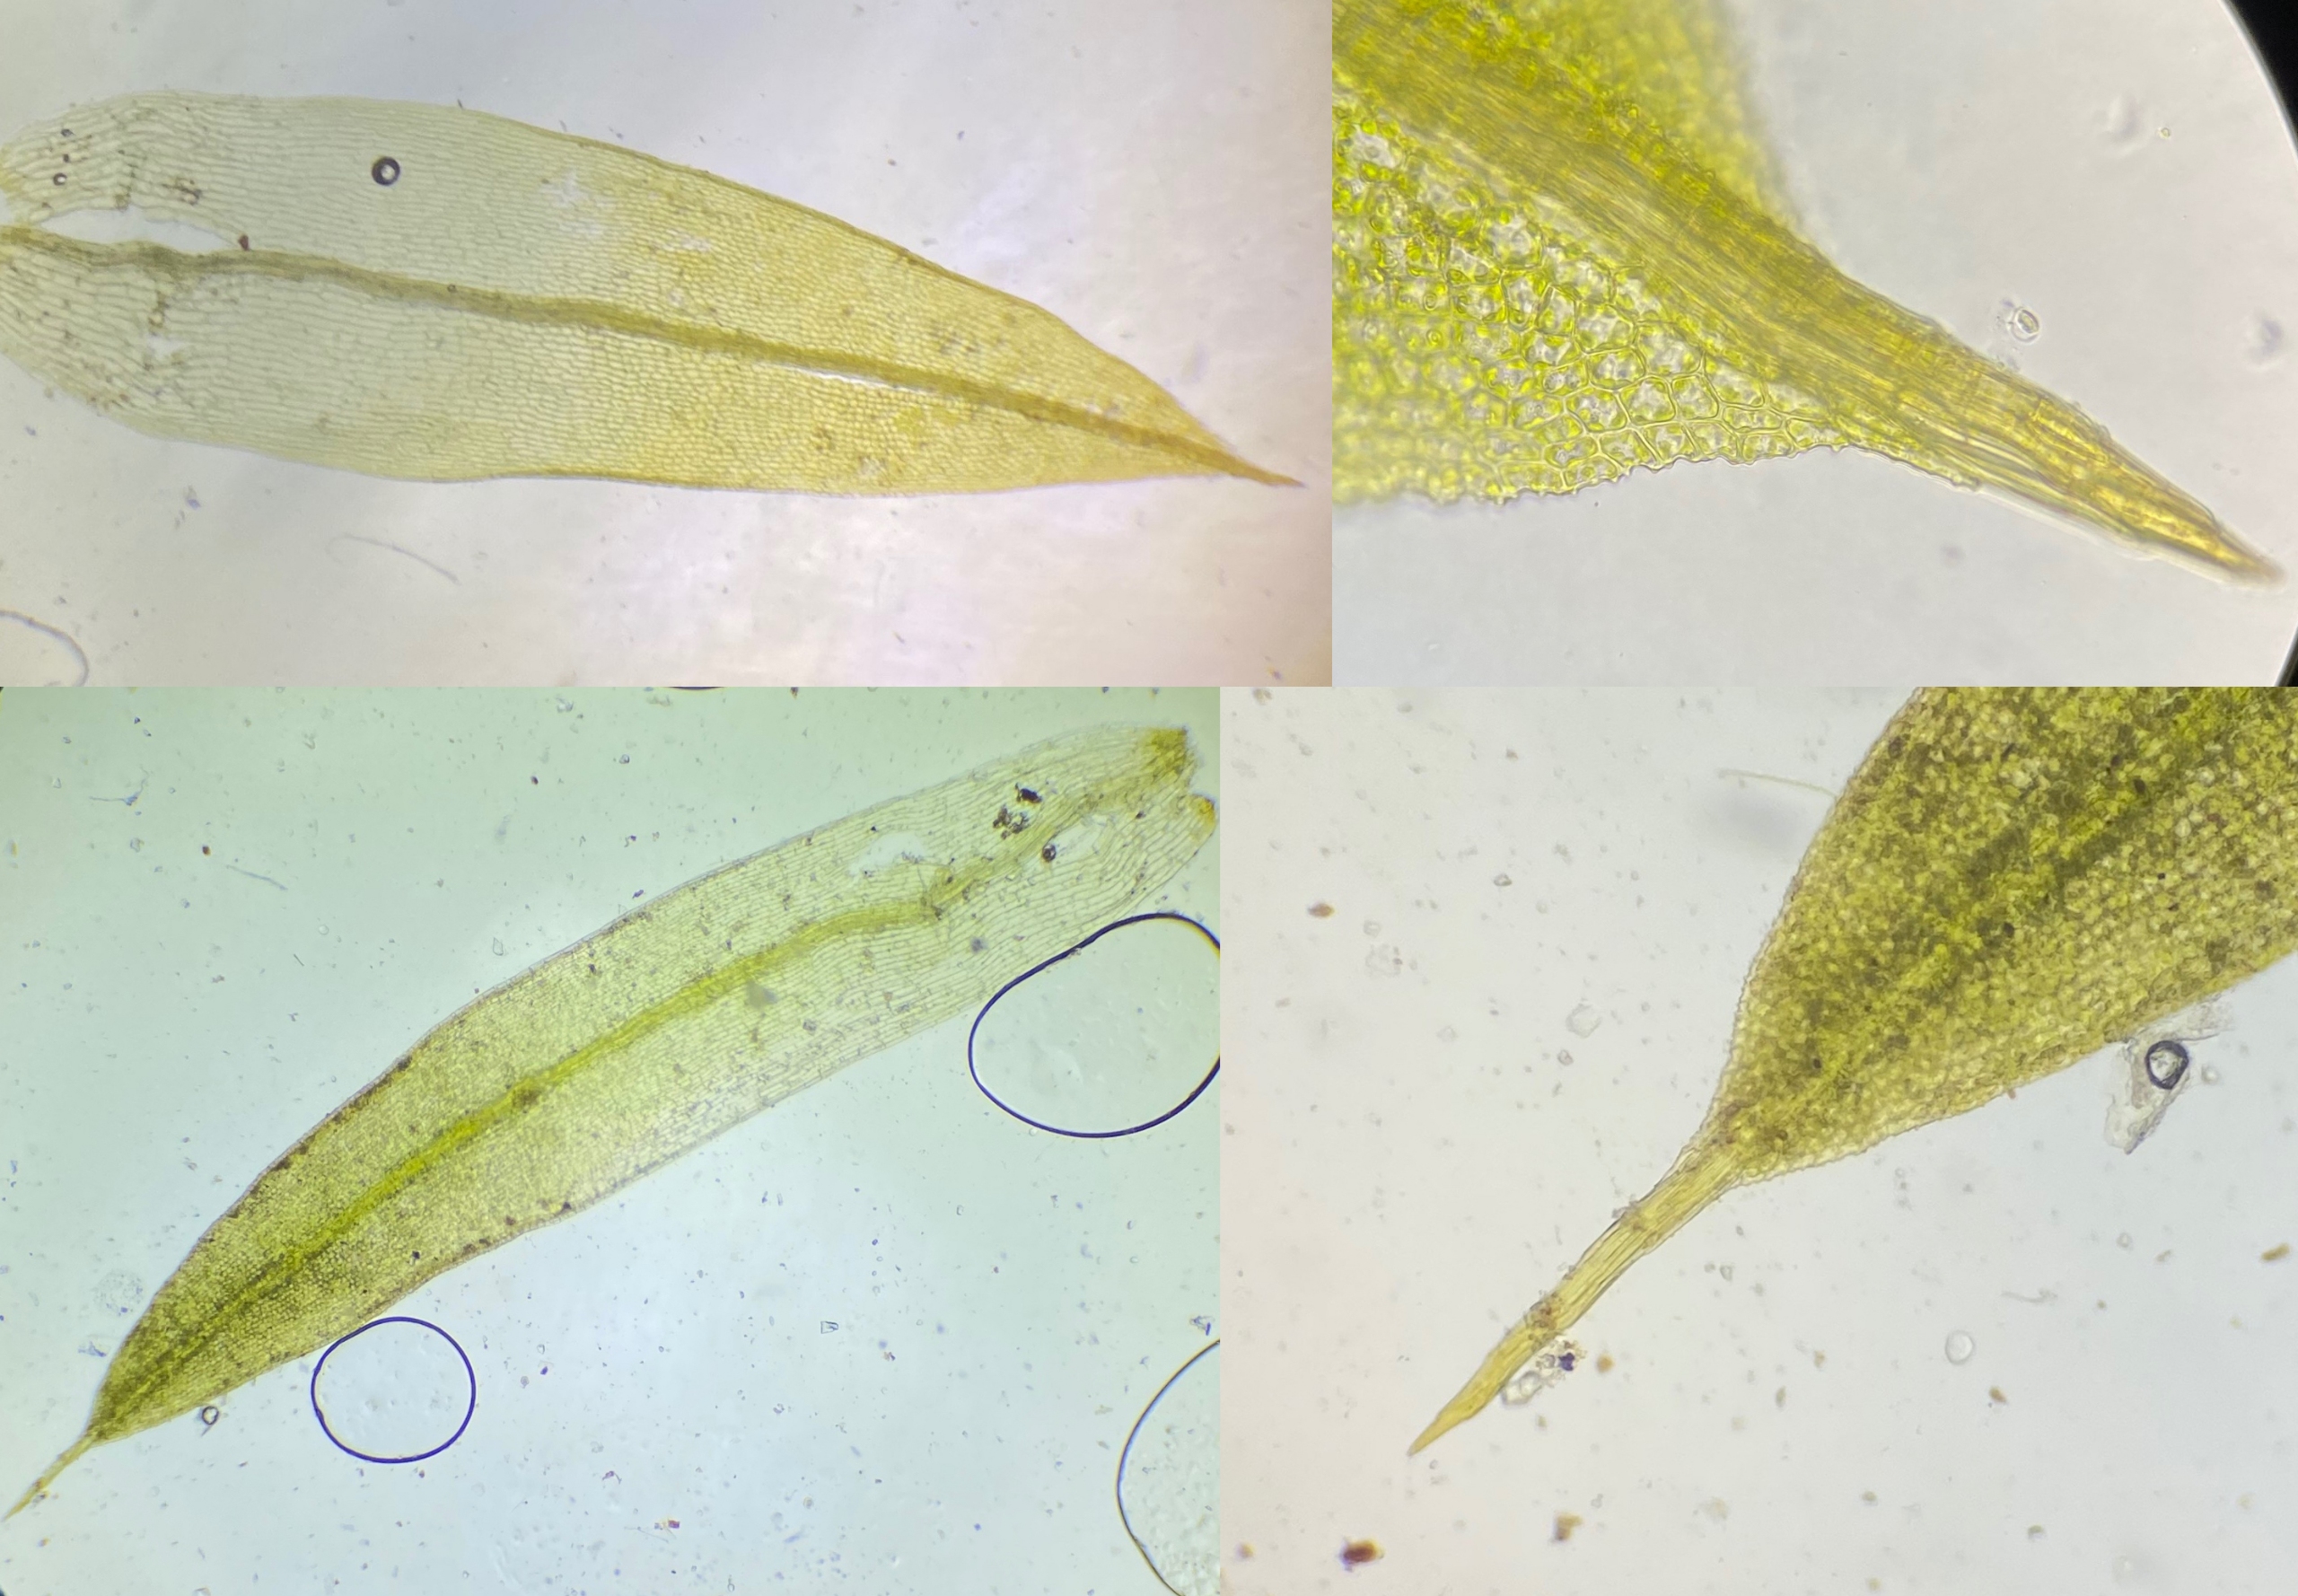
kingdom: Plantae
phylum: Bryophyta
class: Bryopsida
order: Pottiales
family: Pottiaceae
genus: Tortula
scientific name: Tortula acaulon
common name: Tilspidset dværgmos
